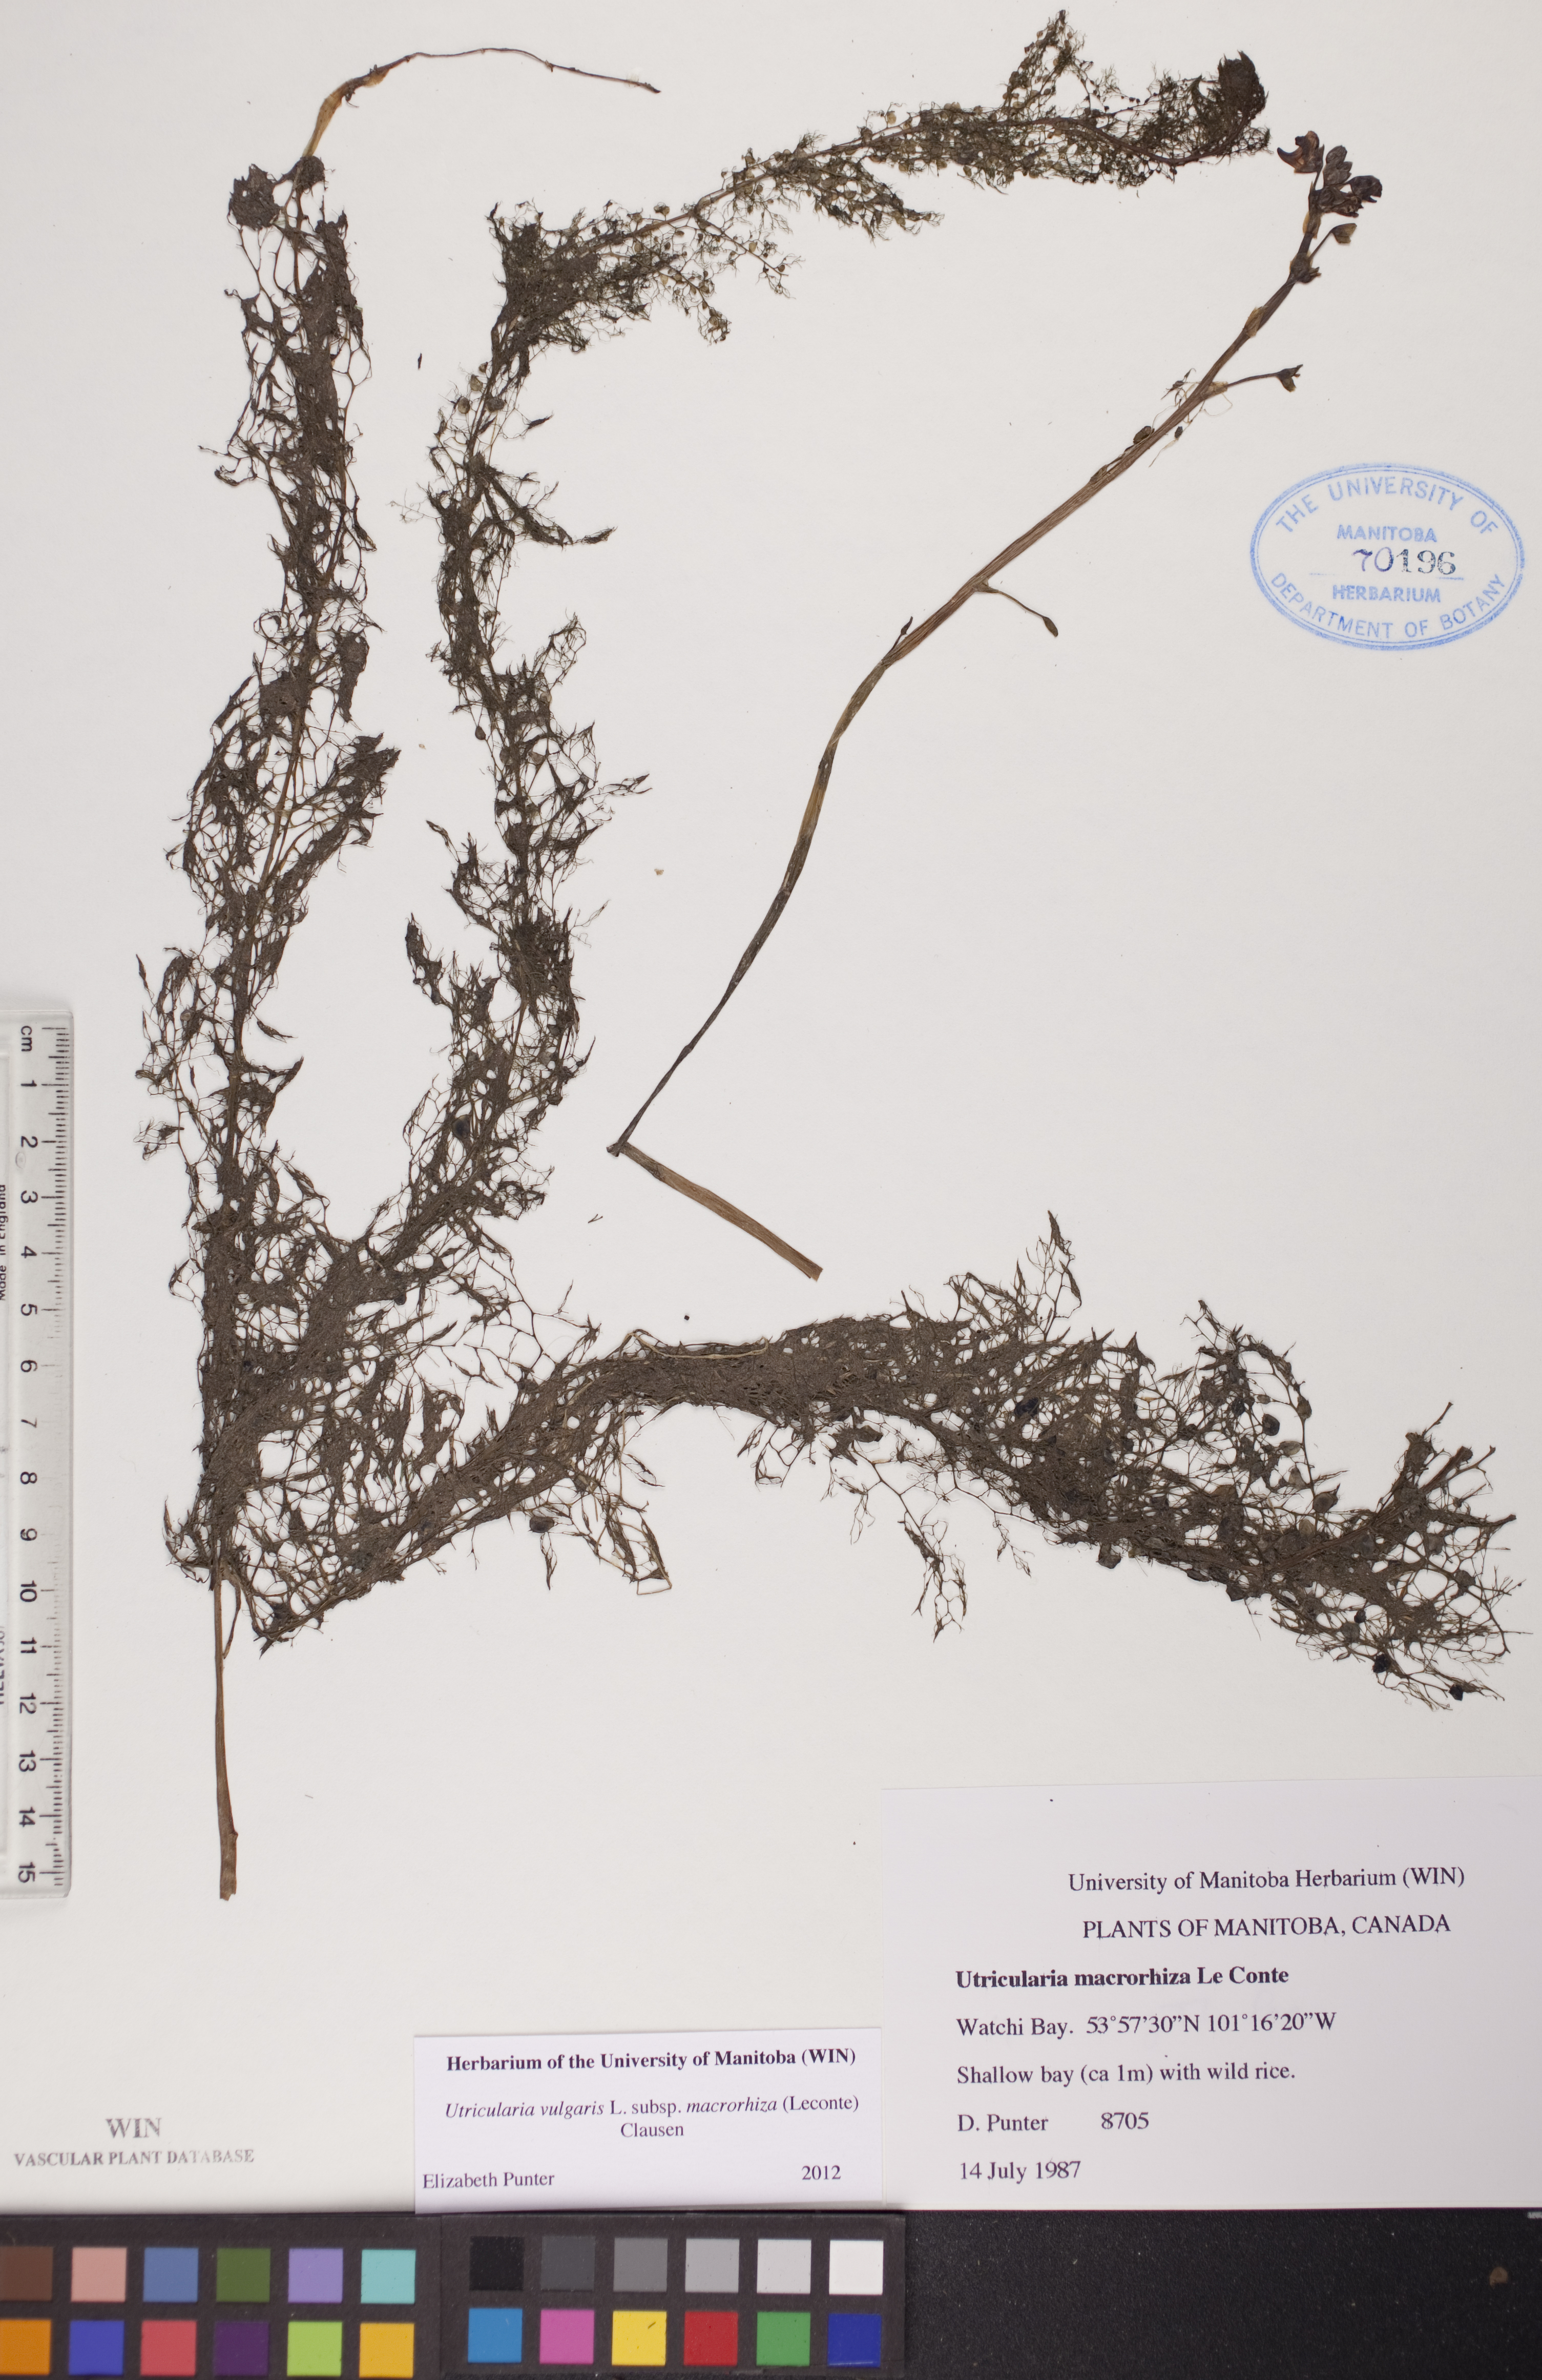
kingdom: Plantae
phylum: Tracheophyta
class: Magnoliopsida
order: Lamiales
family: Lentibulariaceae
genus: Utricularia
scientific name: Utricularia macrorhiza
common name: Common bladderwort
